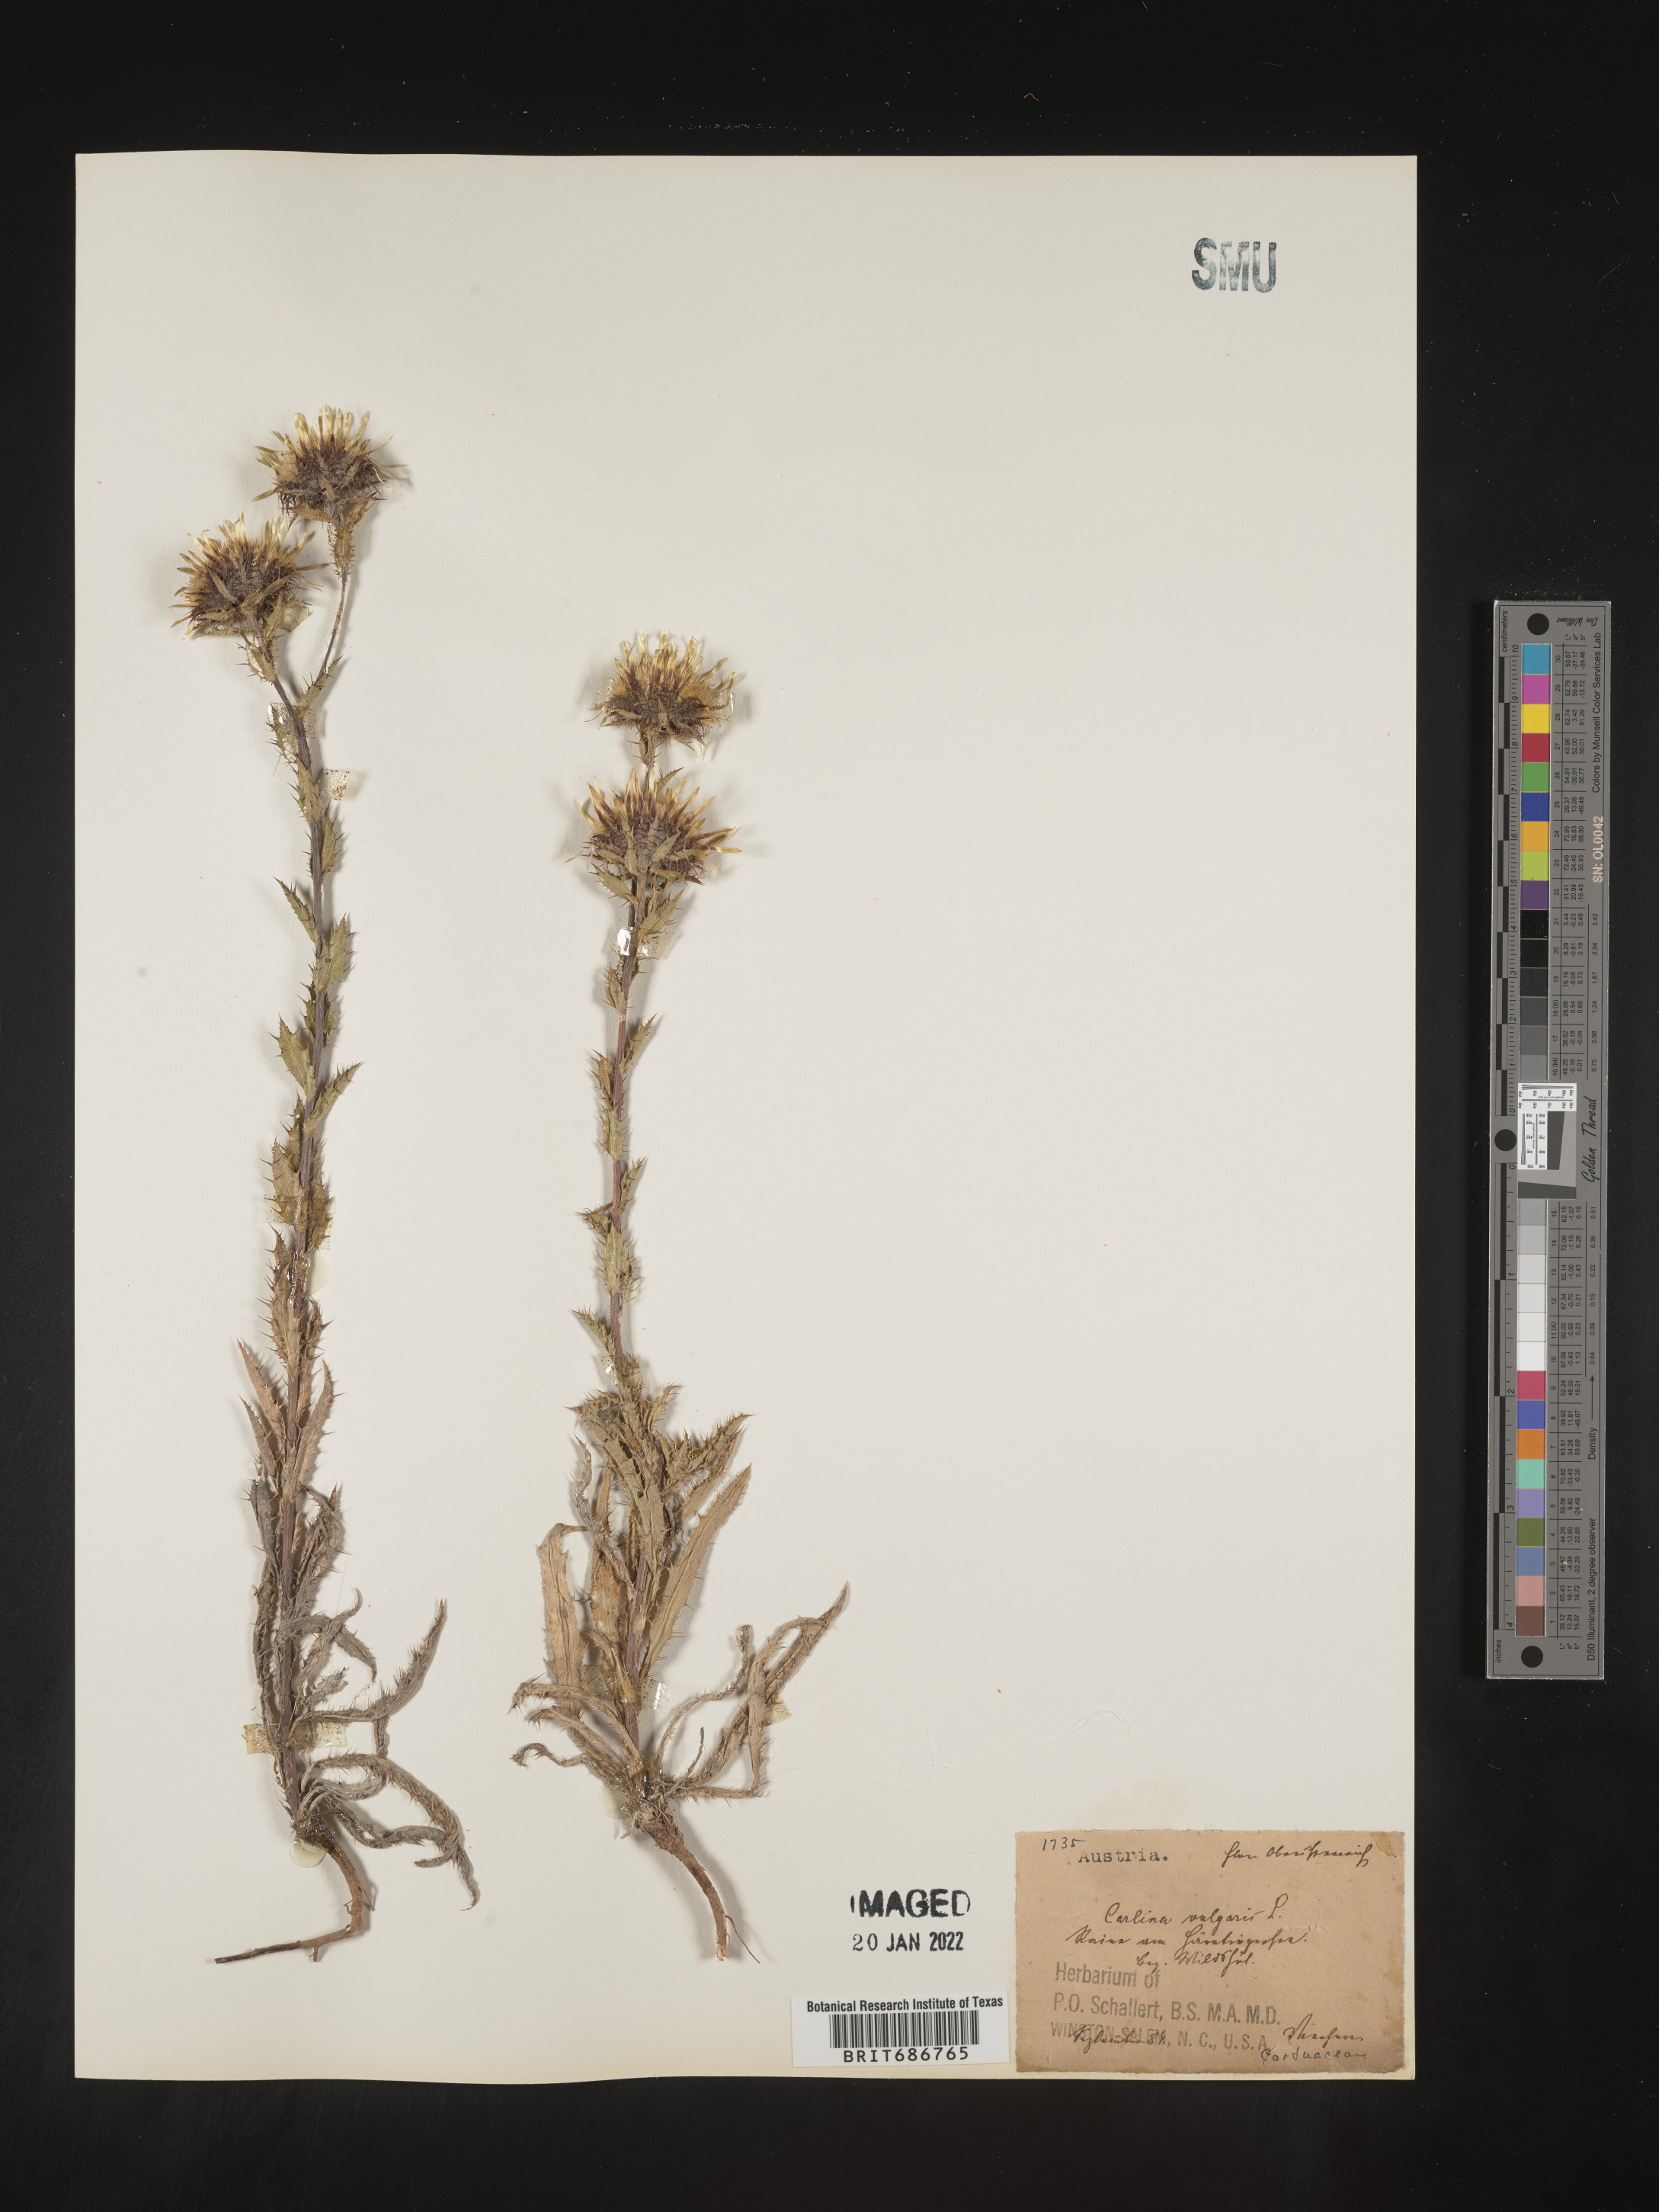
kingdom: Plantae
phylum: Tracheophyta
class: Magnoliopsida
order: Asterales
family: Asteraceae
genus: Carlina
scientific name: Carlina
